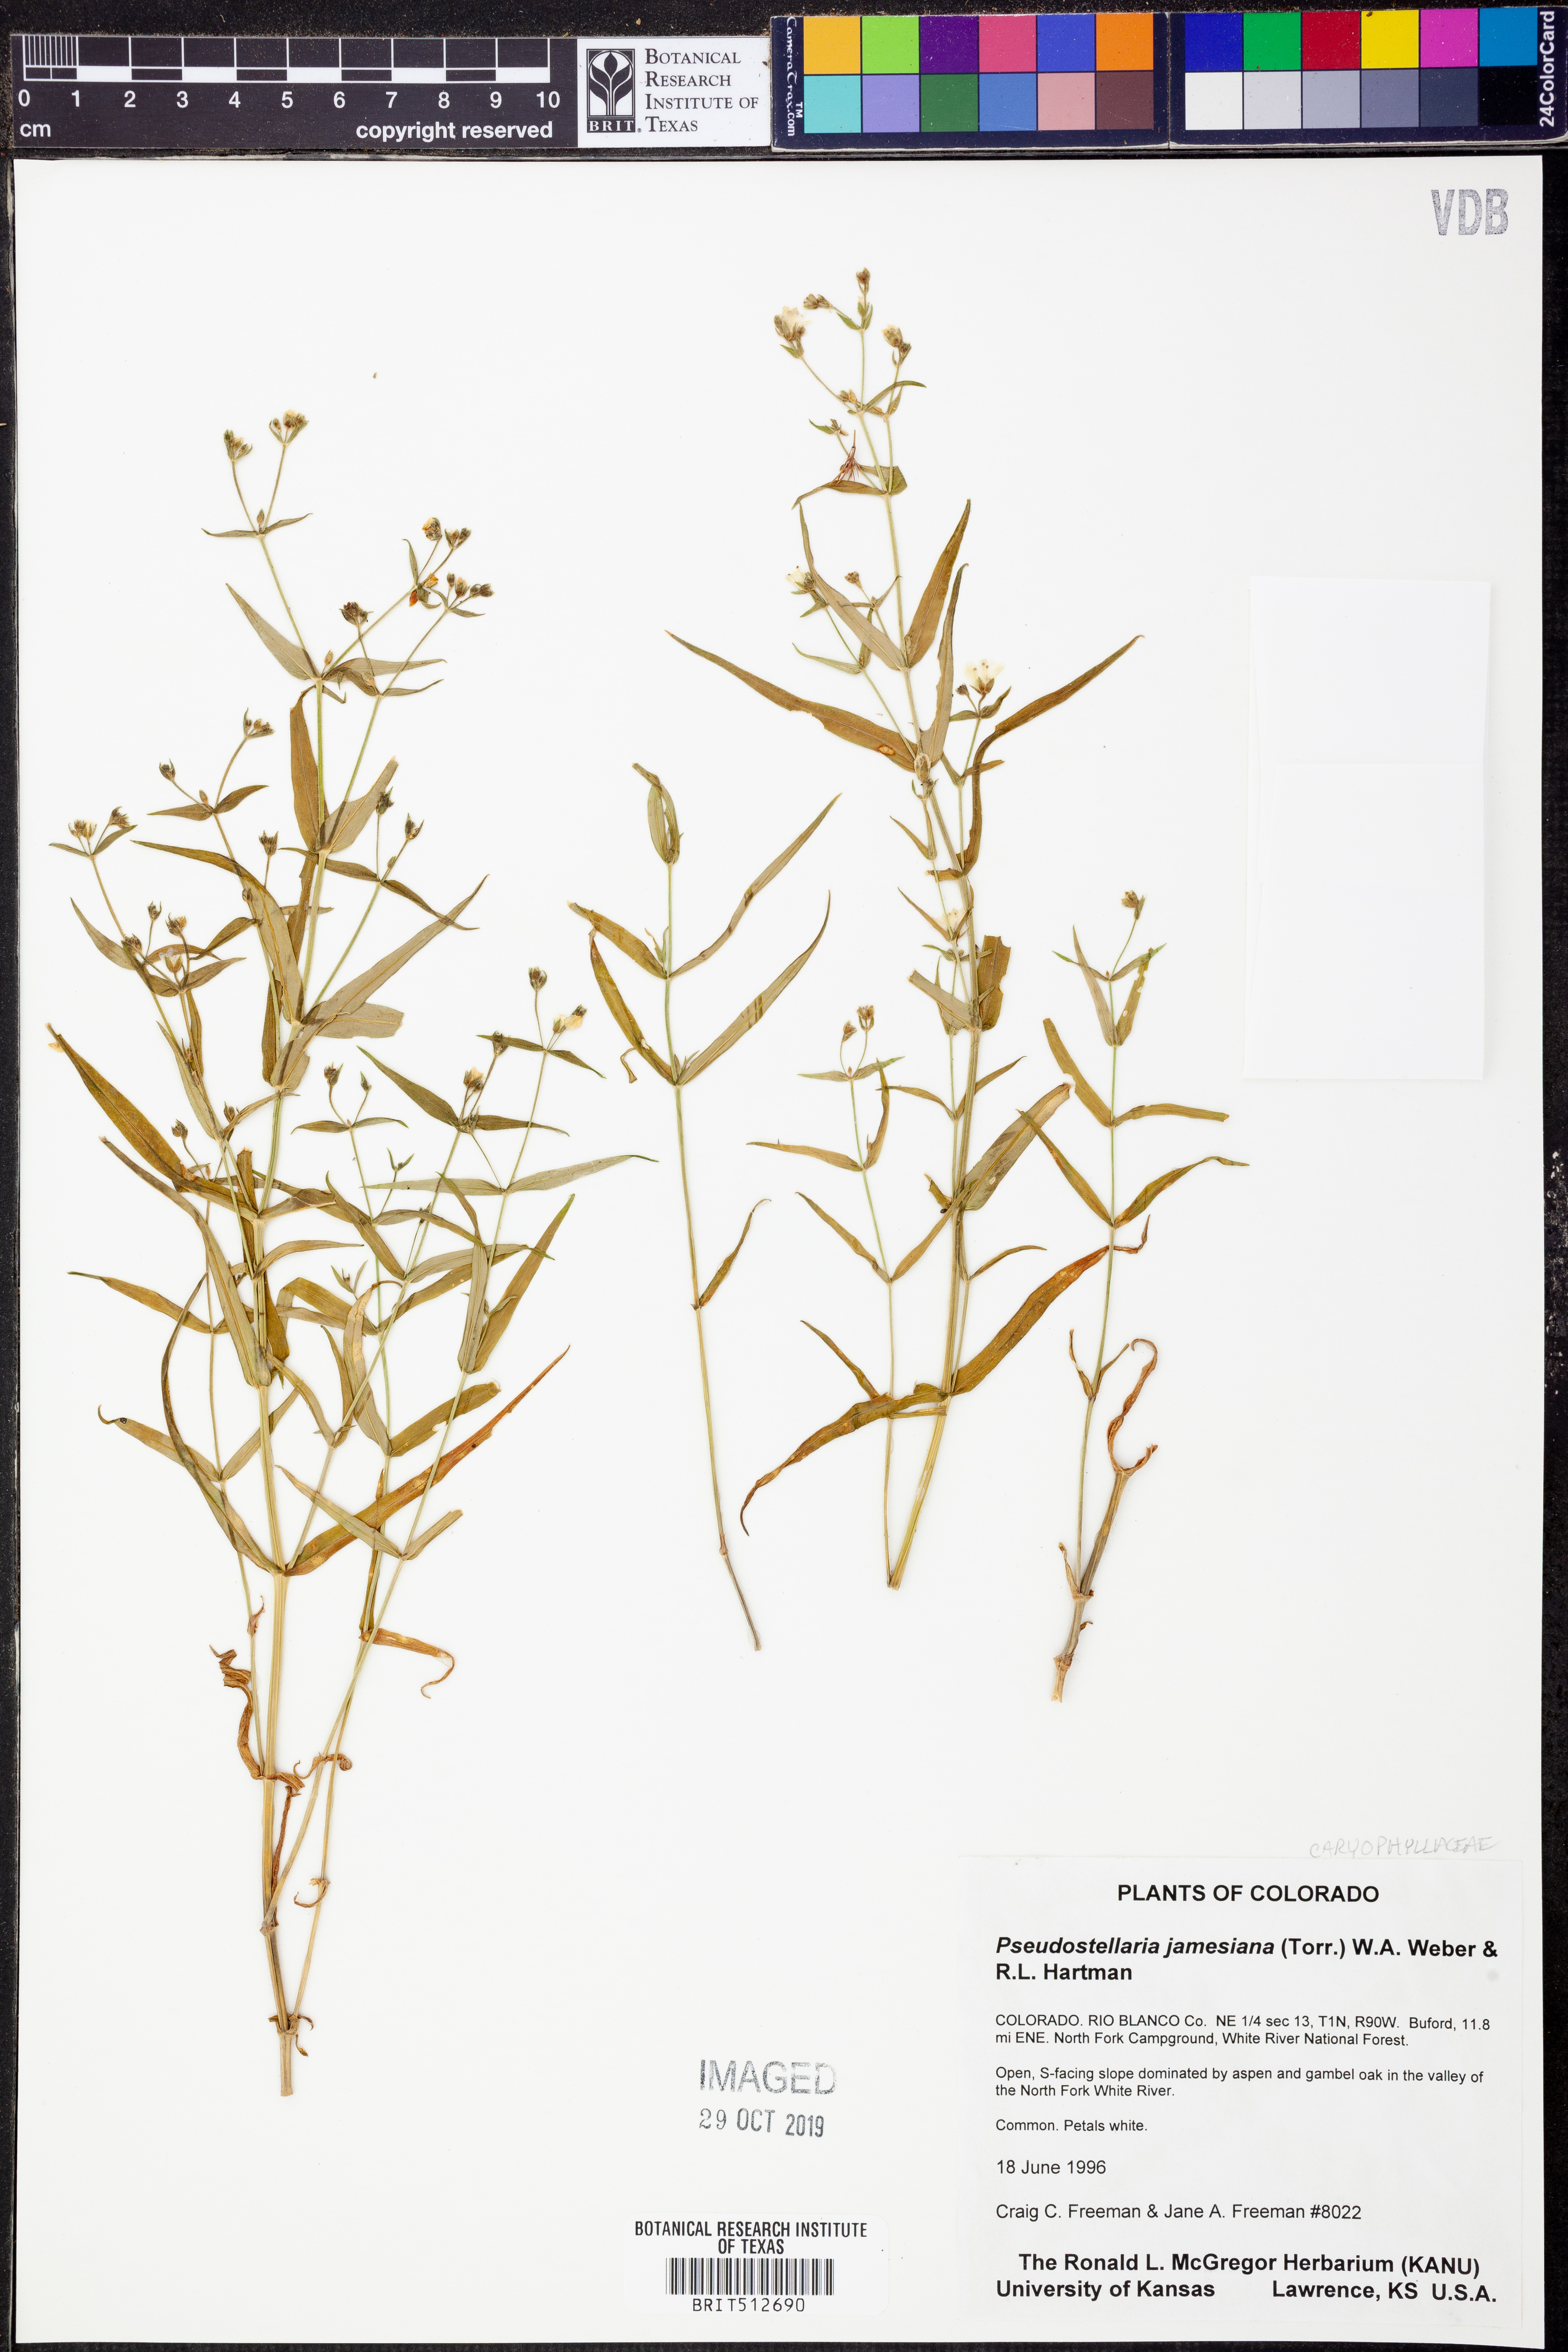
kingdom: Plantae
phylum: Tracheophyta
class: Magnoliopsida
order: Caryophyllales
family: Caryophyllaceae
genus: Schizotechium
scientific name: Schizotechium jamesianum
